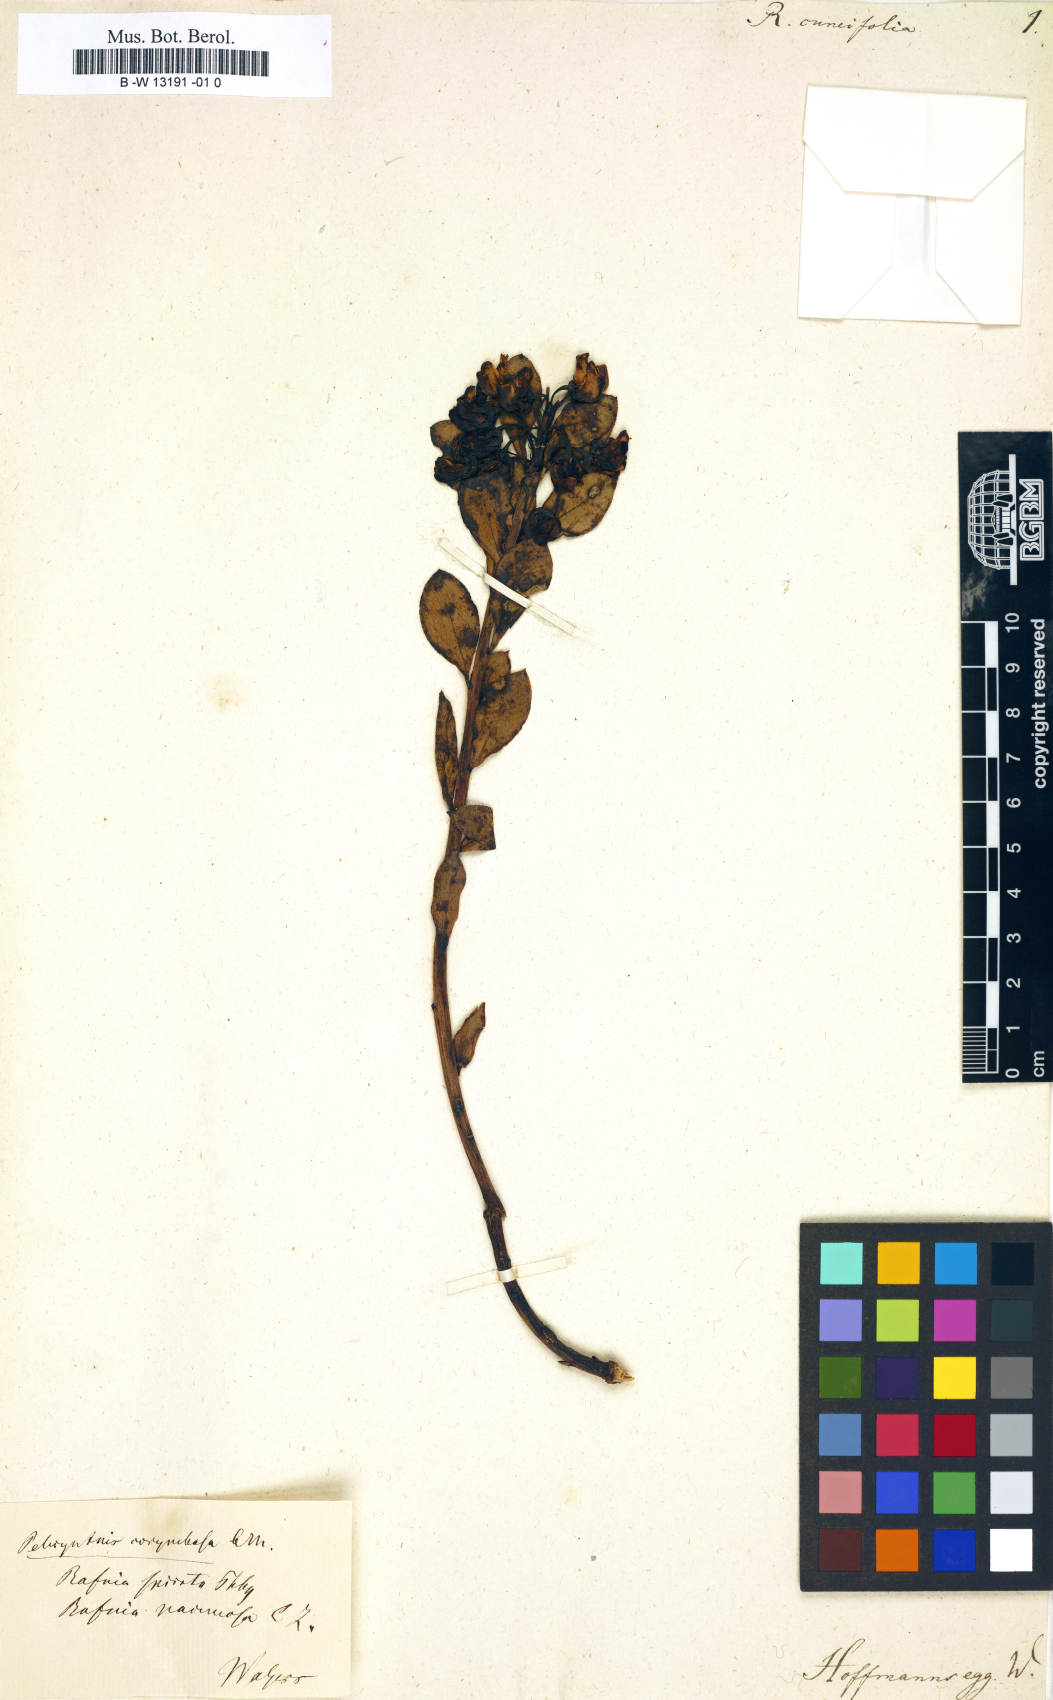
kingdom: Plantae
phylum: Tracheophyta
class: Magnoliopsida
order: Fabales
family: Fabaceae
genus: Rafnia
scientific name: Rafnia cuneifolia
